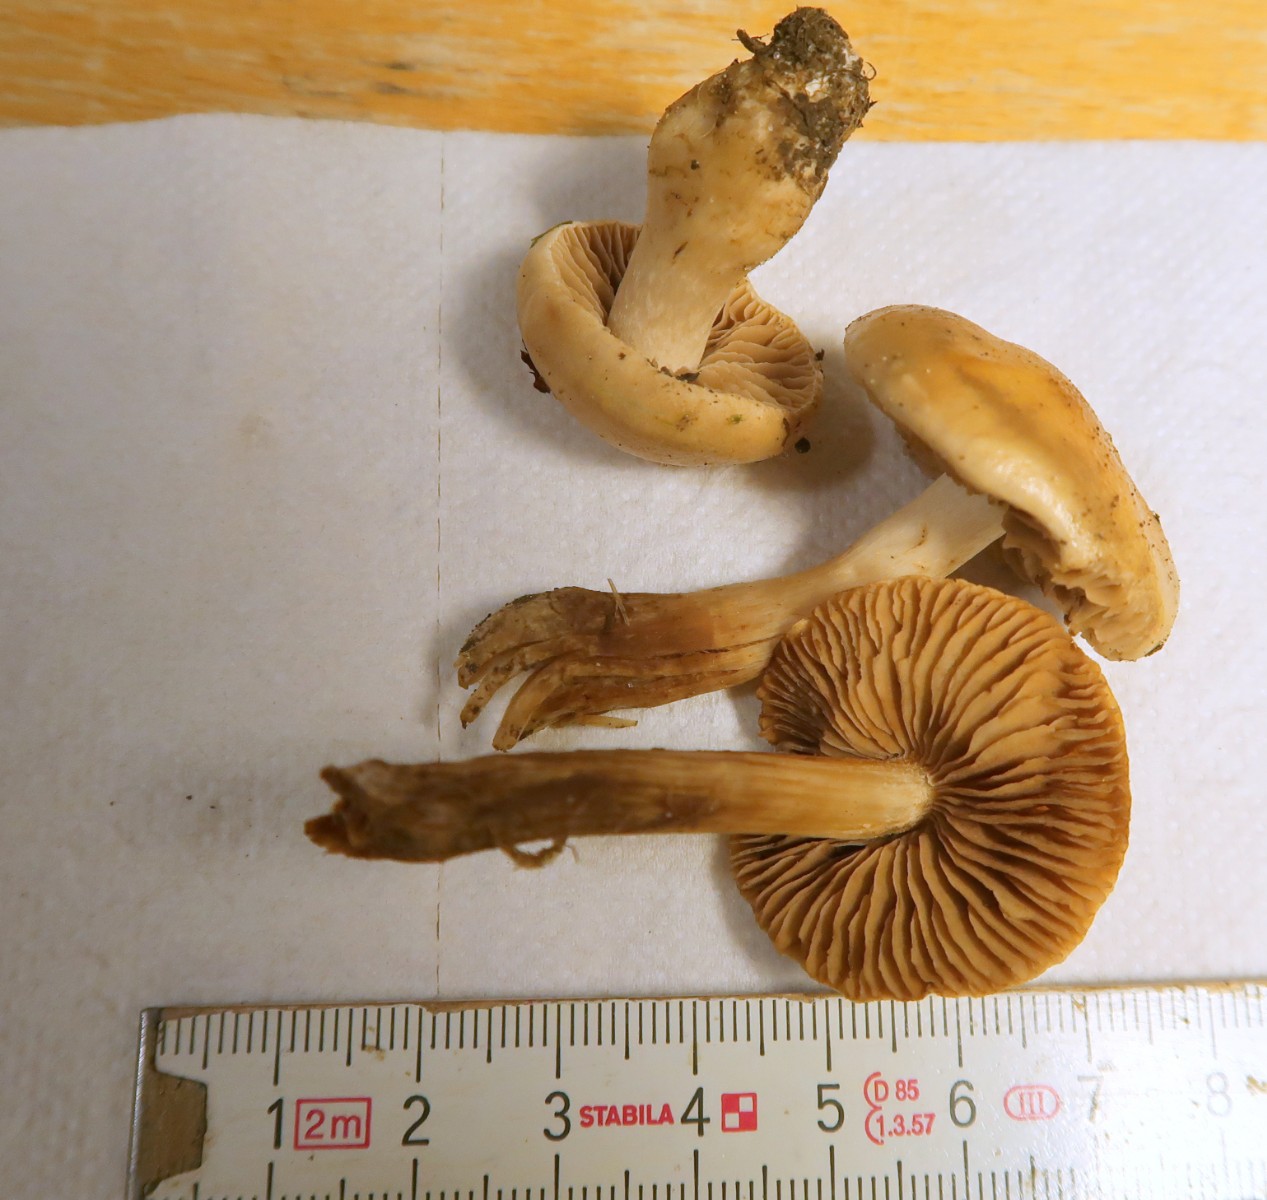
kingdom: Fungi
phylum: Basidiomycota
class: Agaricomycetes
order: Agaricales
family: Hymenogastraceae
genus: Hebeloma
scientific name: Hebeloma sacchariolens
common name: sødtduftende tåreblad
